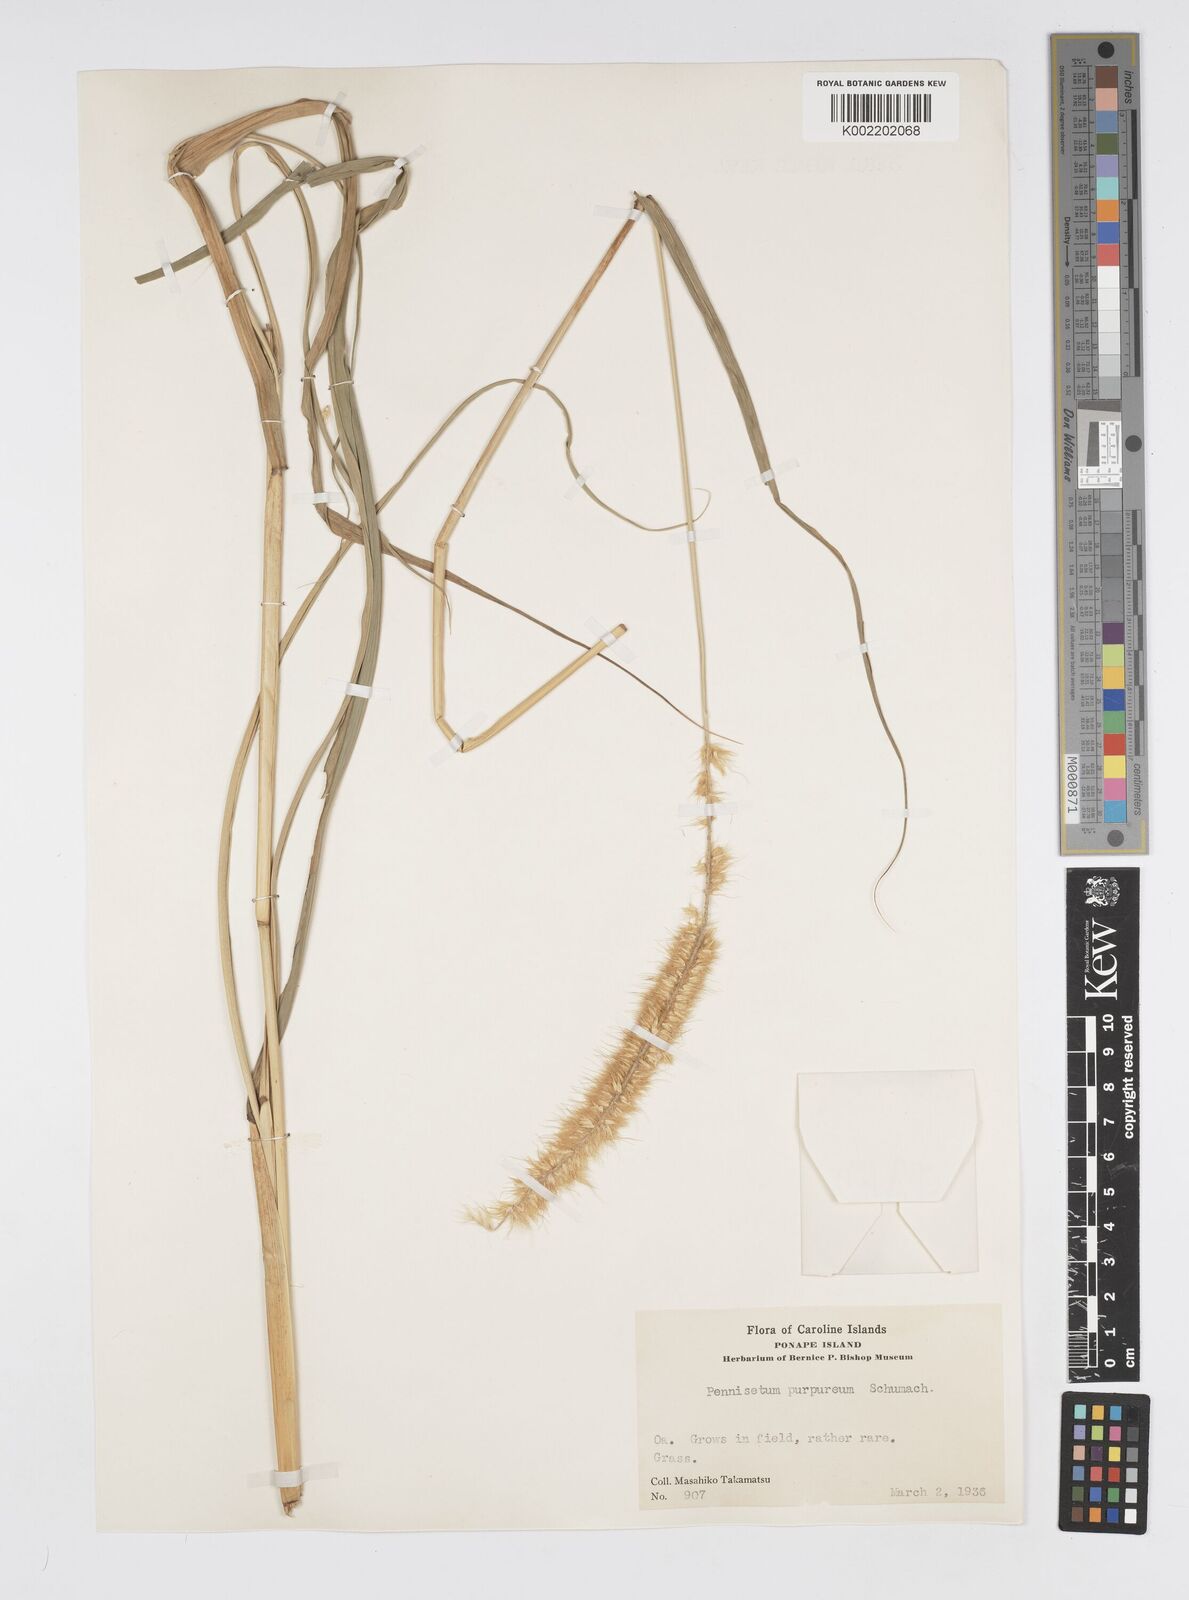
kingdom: Plantae
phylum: Tracheophyta
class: Liliopsida
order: Poales
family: Poaceae
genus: Cenchrus
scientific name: Cenchrus purpureus
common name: Elephant grass
